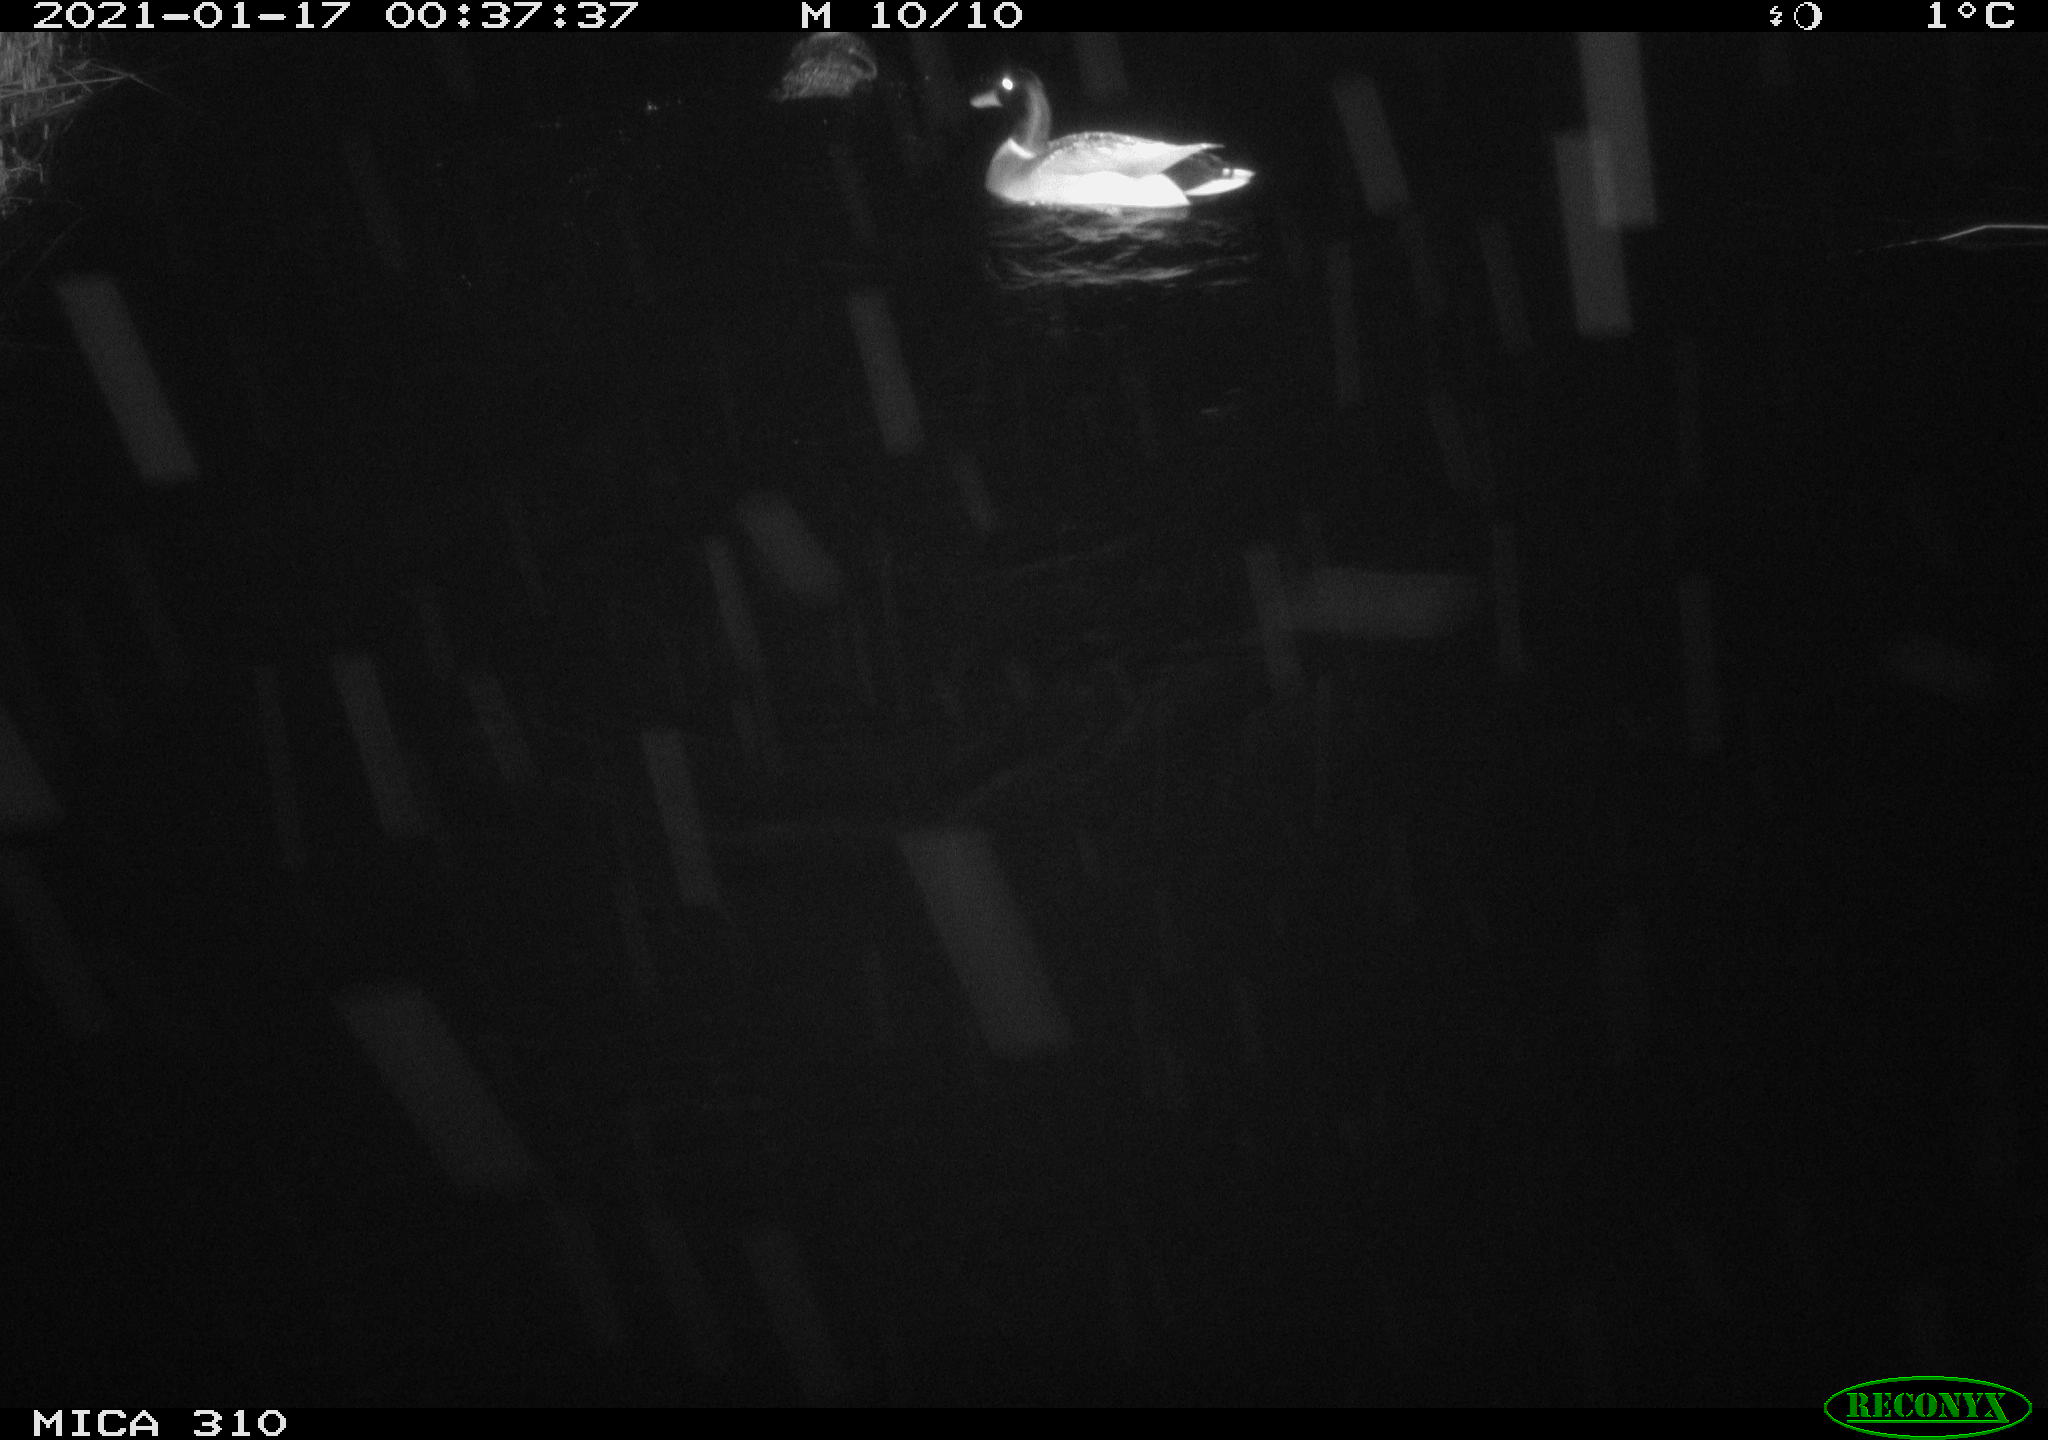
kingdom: Animalia
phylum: Chordata
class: Aves
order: Anseriformes
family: Anatidae
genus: Anas
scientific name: Anas platyrhynchos
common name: Mallard
